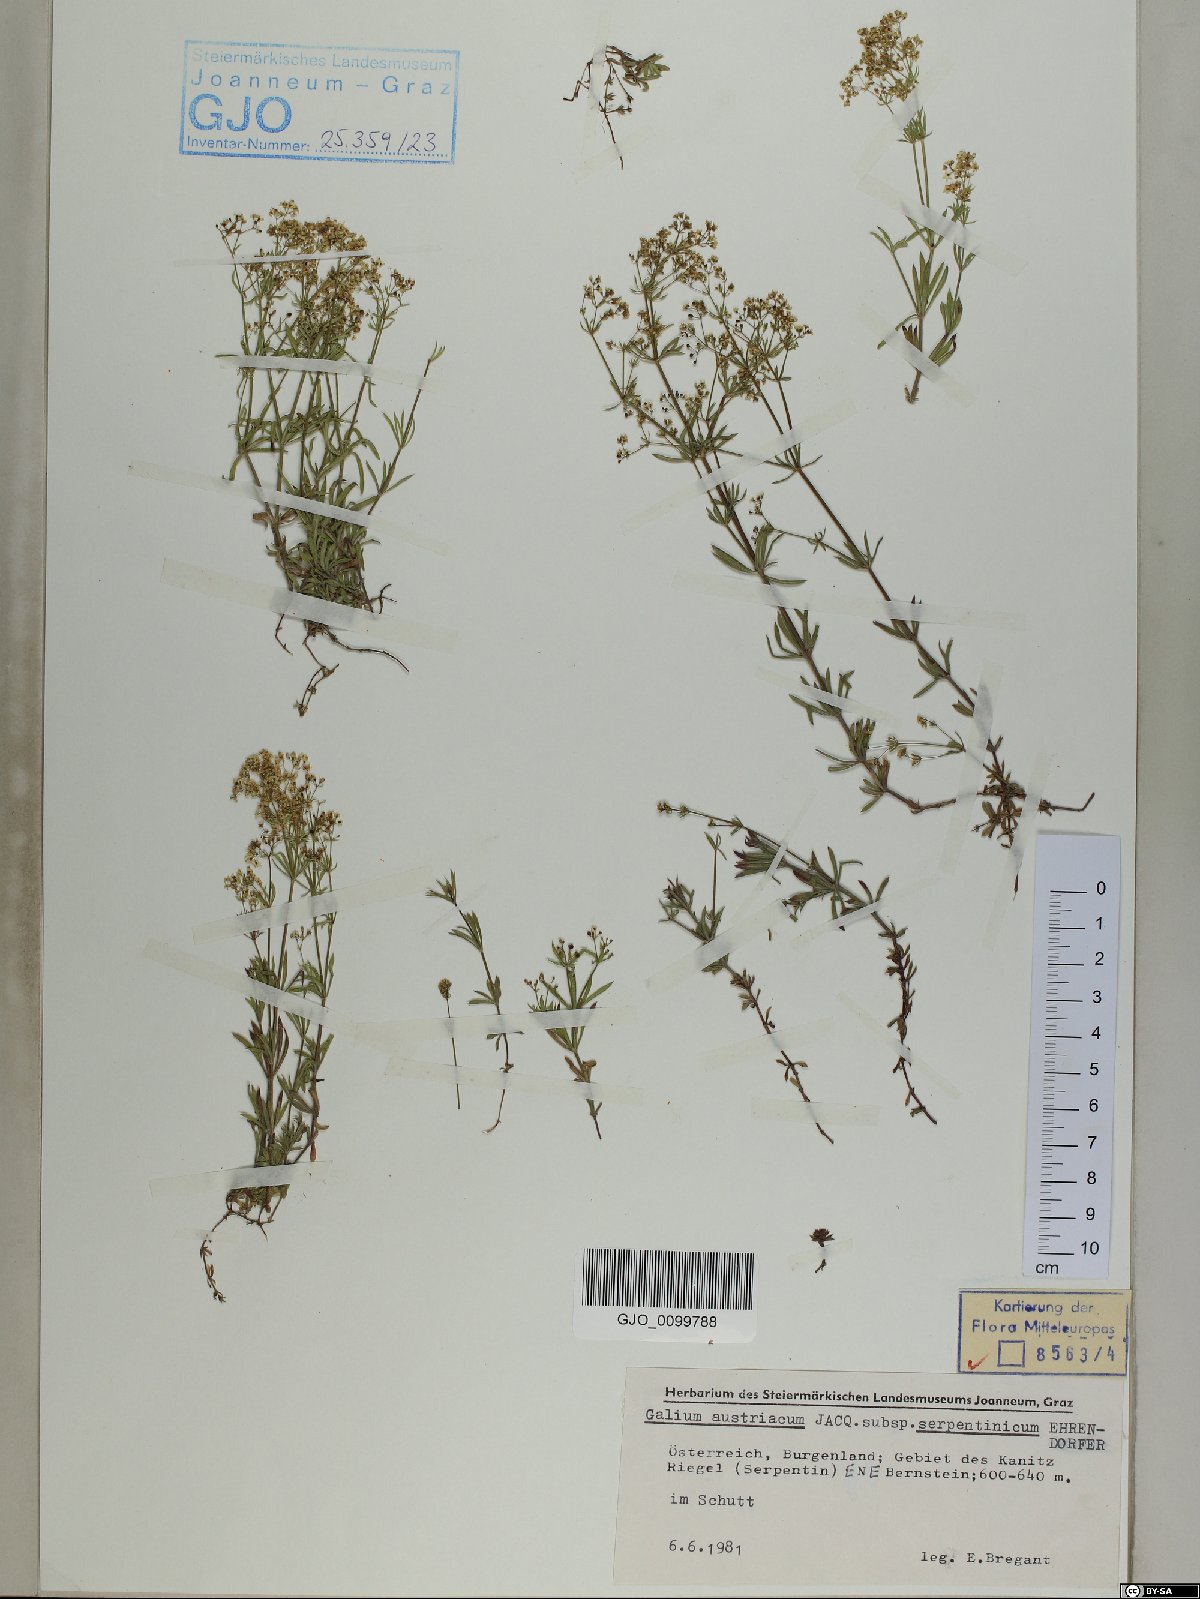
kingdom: Plantae
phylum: Tracheophyta
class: Magnoliopsida
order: Gentianales
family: Rubiaceae
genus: Galium
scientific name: Galium austriacum
